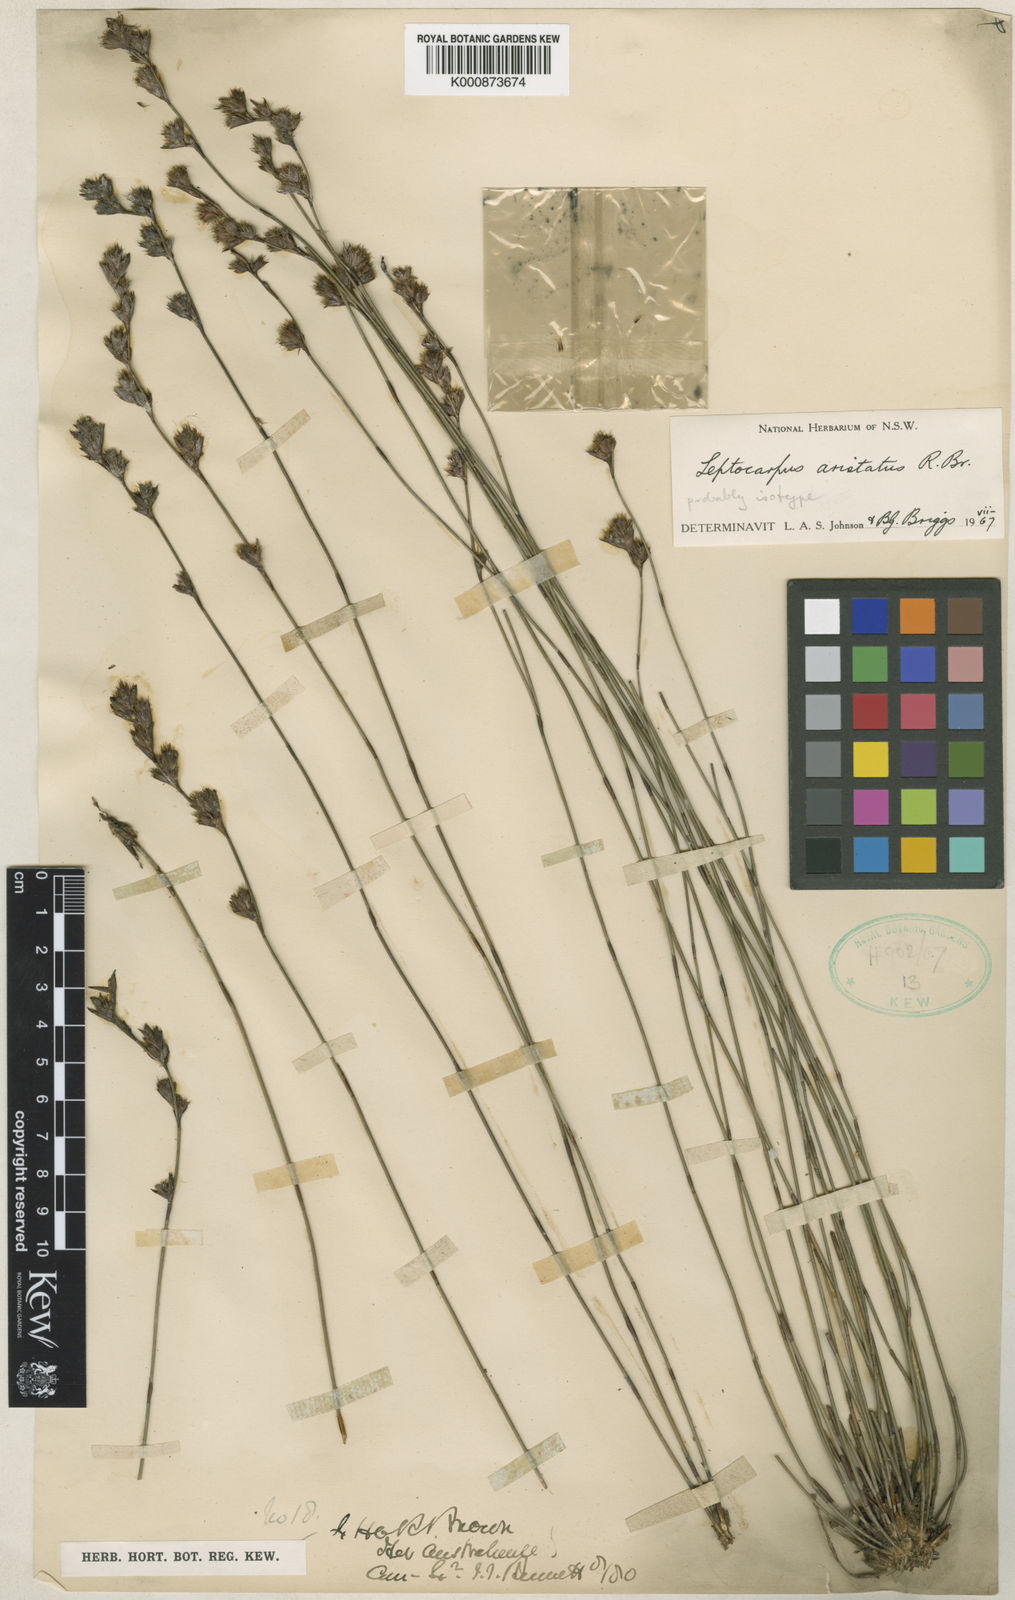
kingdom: Plantae
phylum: Tracheophyta
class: Liliopsida
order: Poales
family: Restionaceae
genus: Chaetanthus
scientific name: Chaetanthus aristatus
